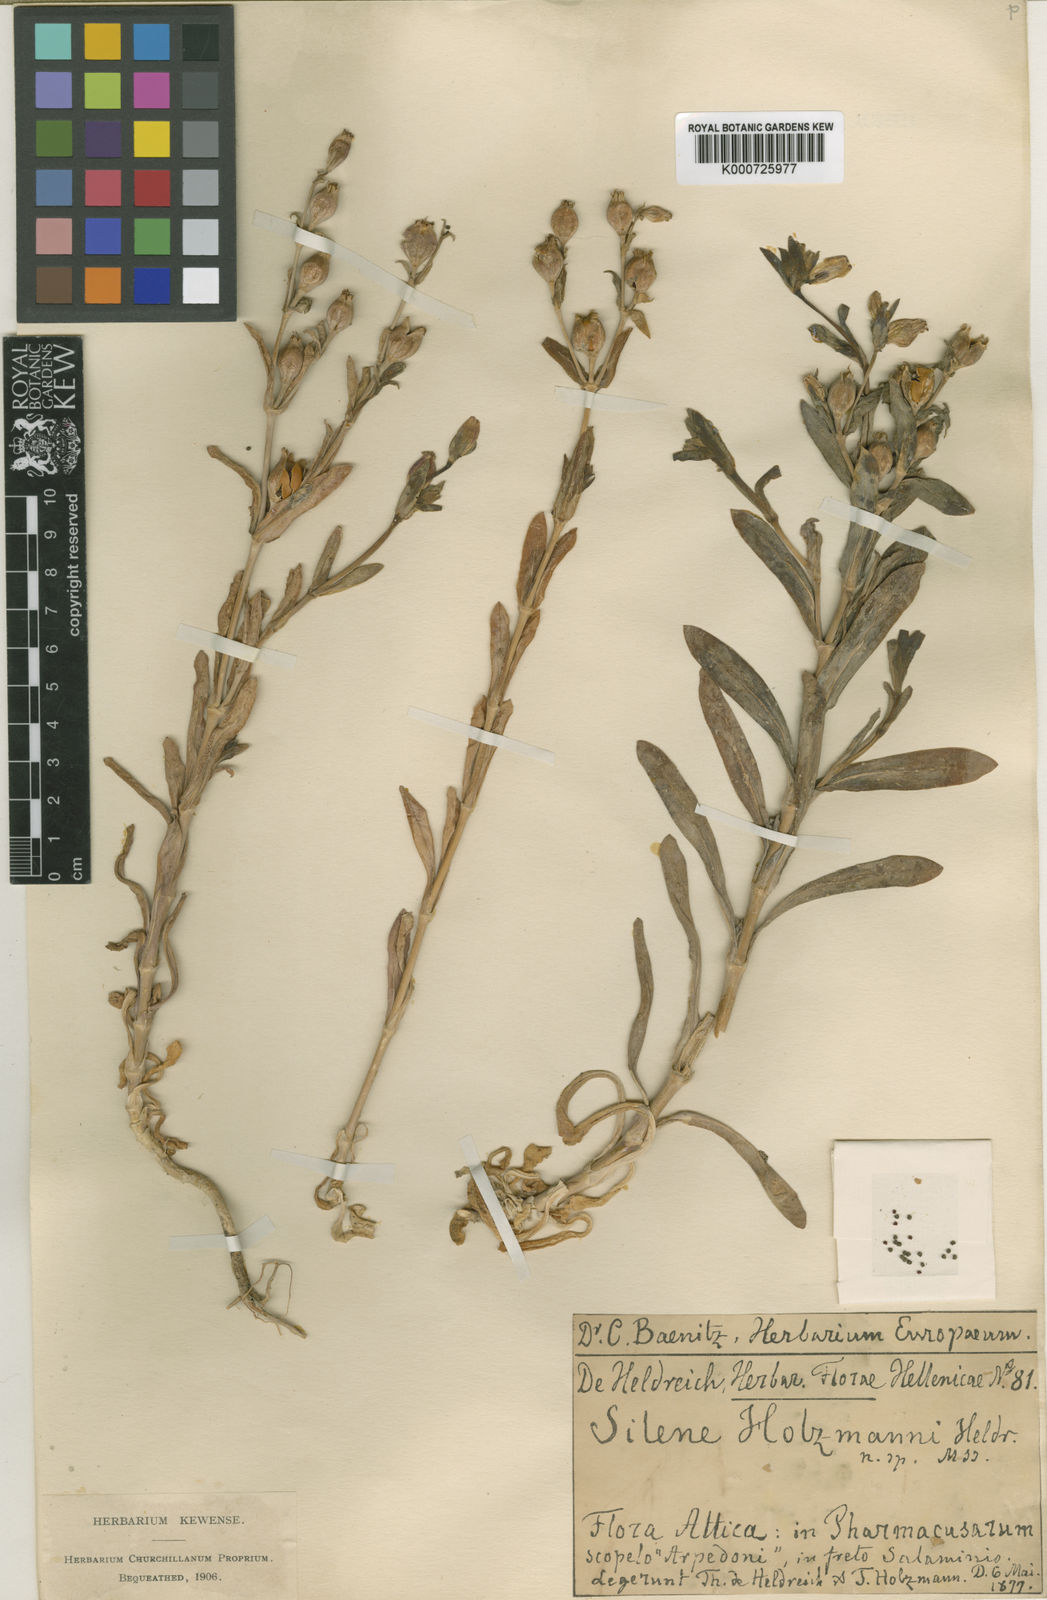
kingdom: Plantae
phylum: Tracheophyta
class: Magnoliopsida
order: Caryophyllales
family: Caryophyllaceae
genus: Silene
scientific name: Silene holzmannii
